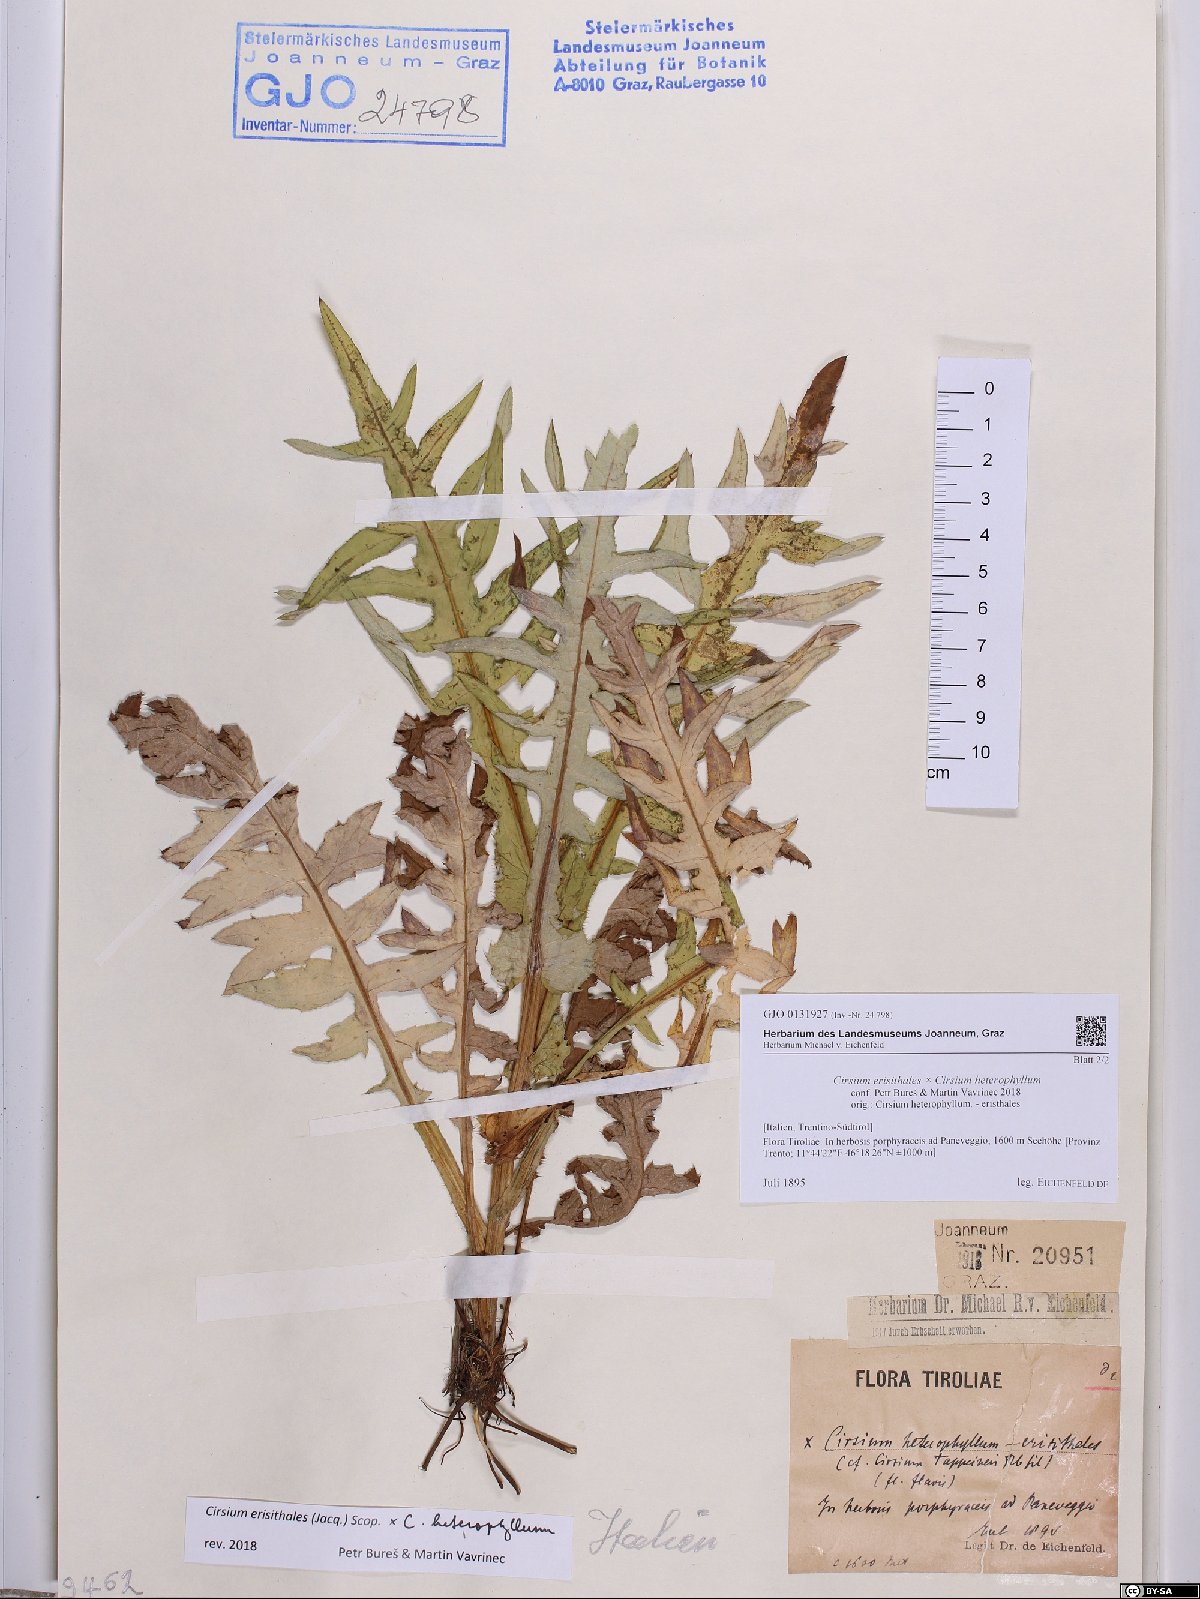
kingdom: Plantae
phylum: Tracheophyta
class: Magnoliopsida
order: Asterales
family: Asteraceae
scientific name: Asteraceae
